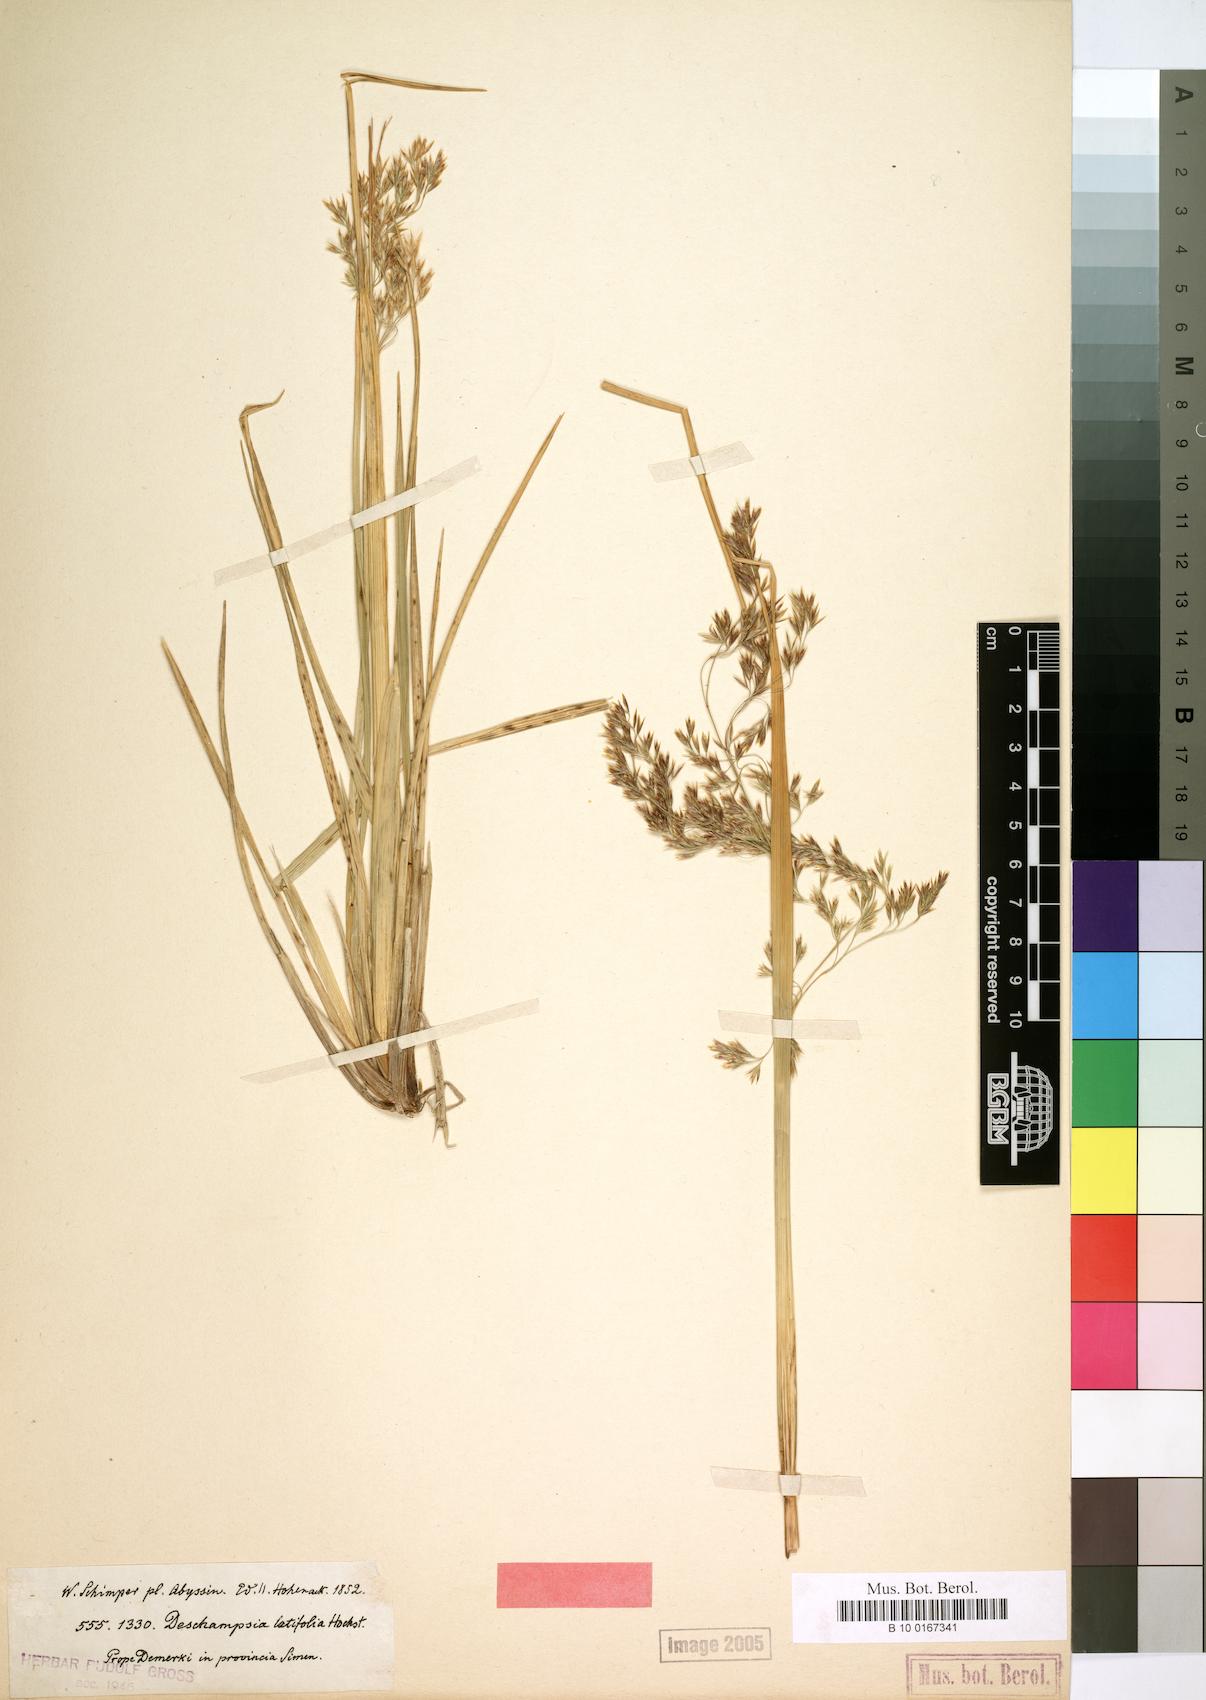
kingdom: Plantae
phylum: Tracheophyta
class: Liliopsida
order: Poales
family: Poaceae
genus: Deschampsia
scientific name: Deschampsia cespitosa
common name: Tufted hair-grass
